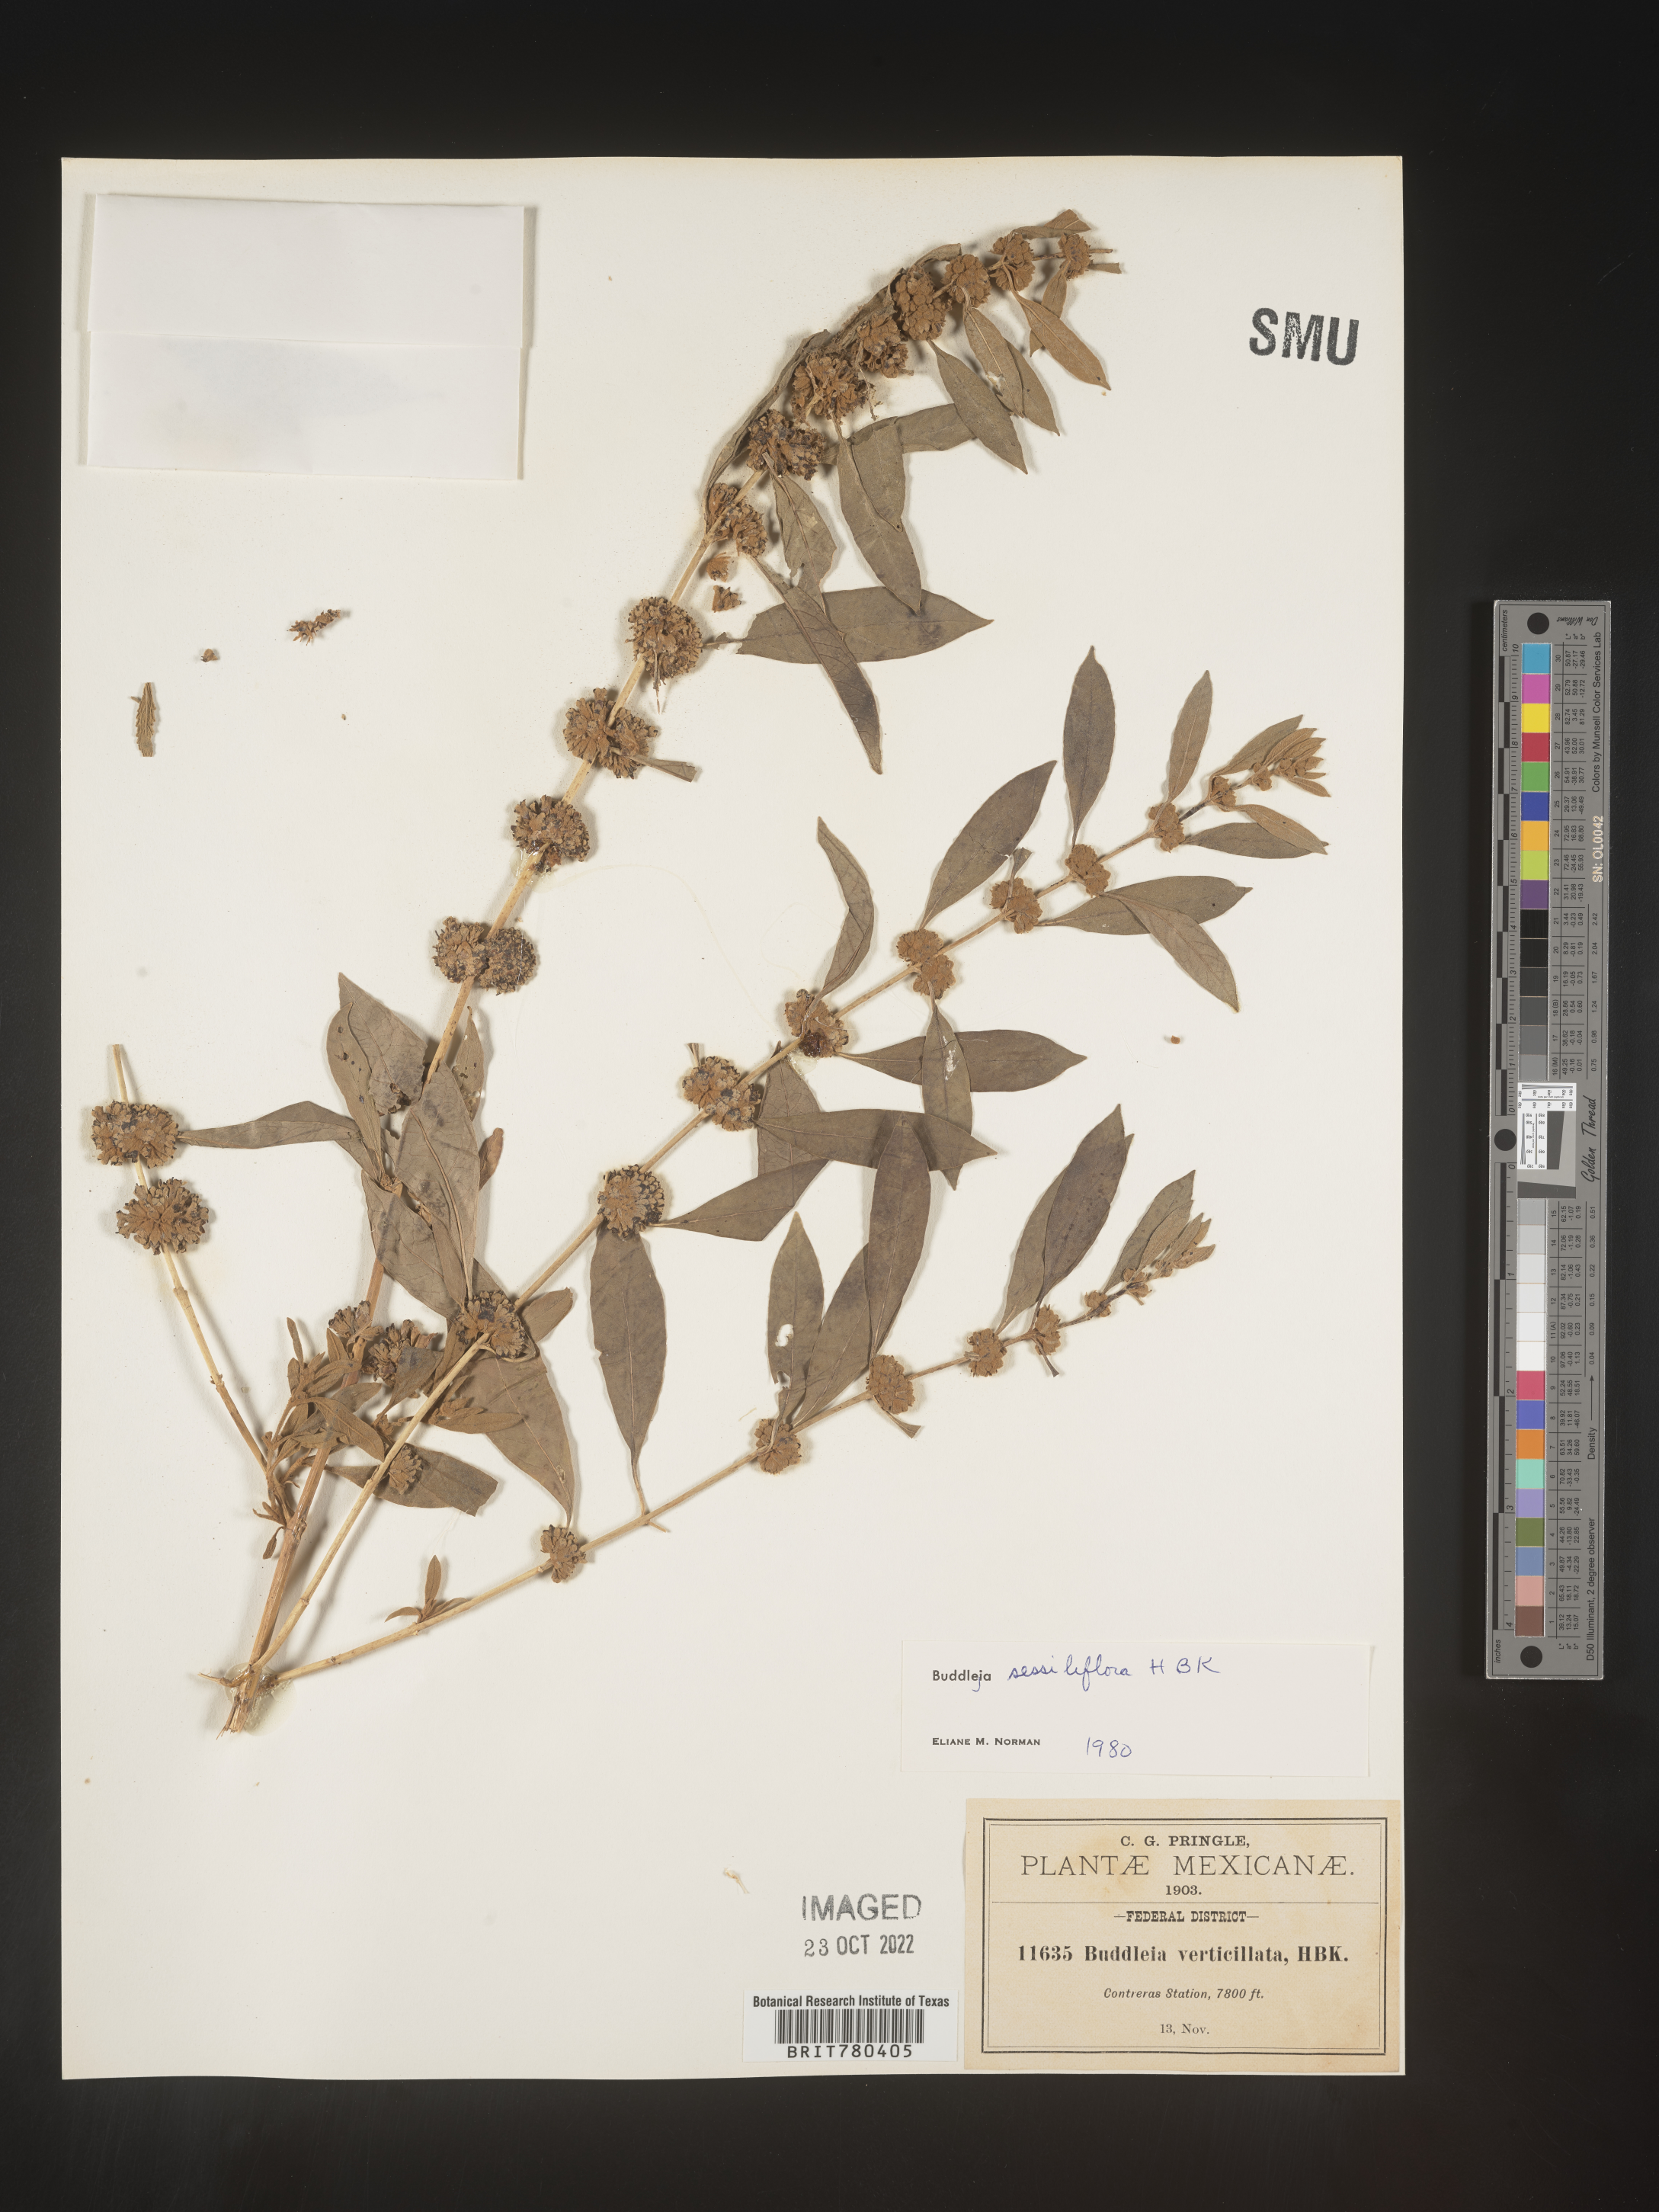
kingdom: Plantae
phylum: Tracheophyta
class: Magnoliopsida
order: Lamiales
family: Scrophulariaceae
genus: Buddleja
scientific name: Buddleja
